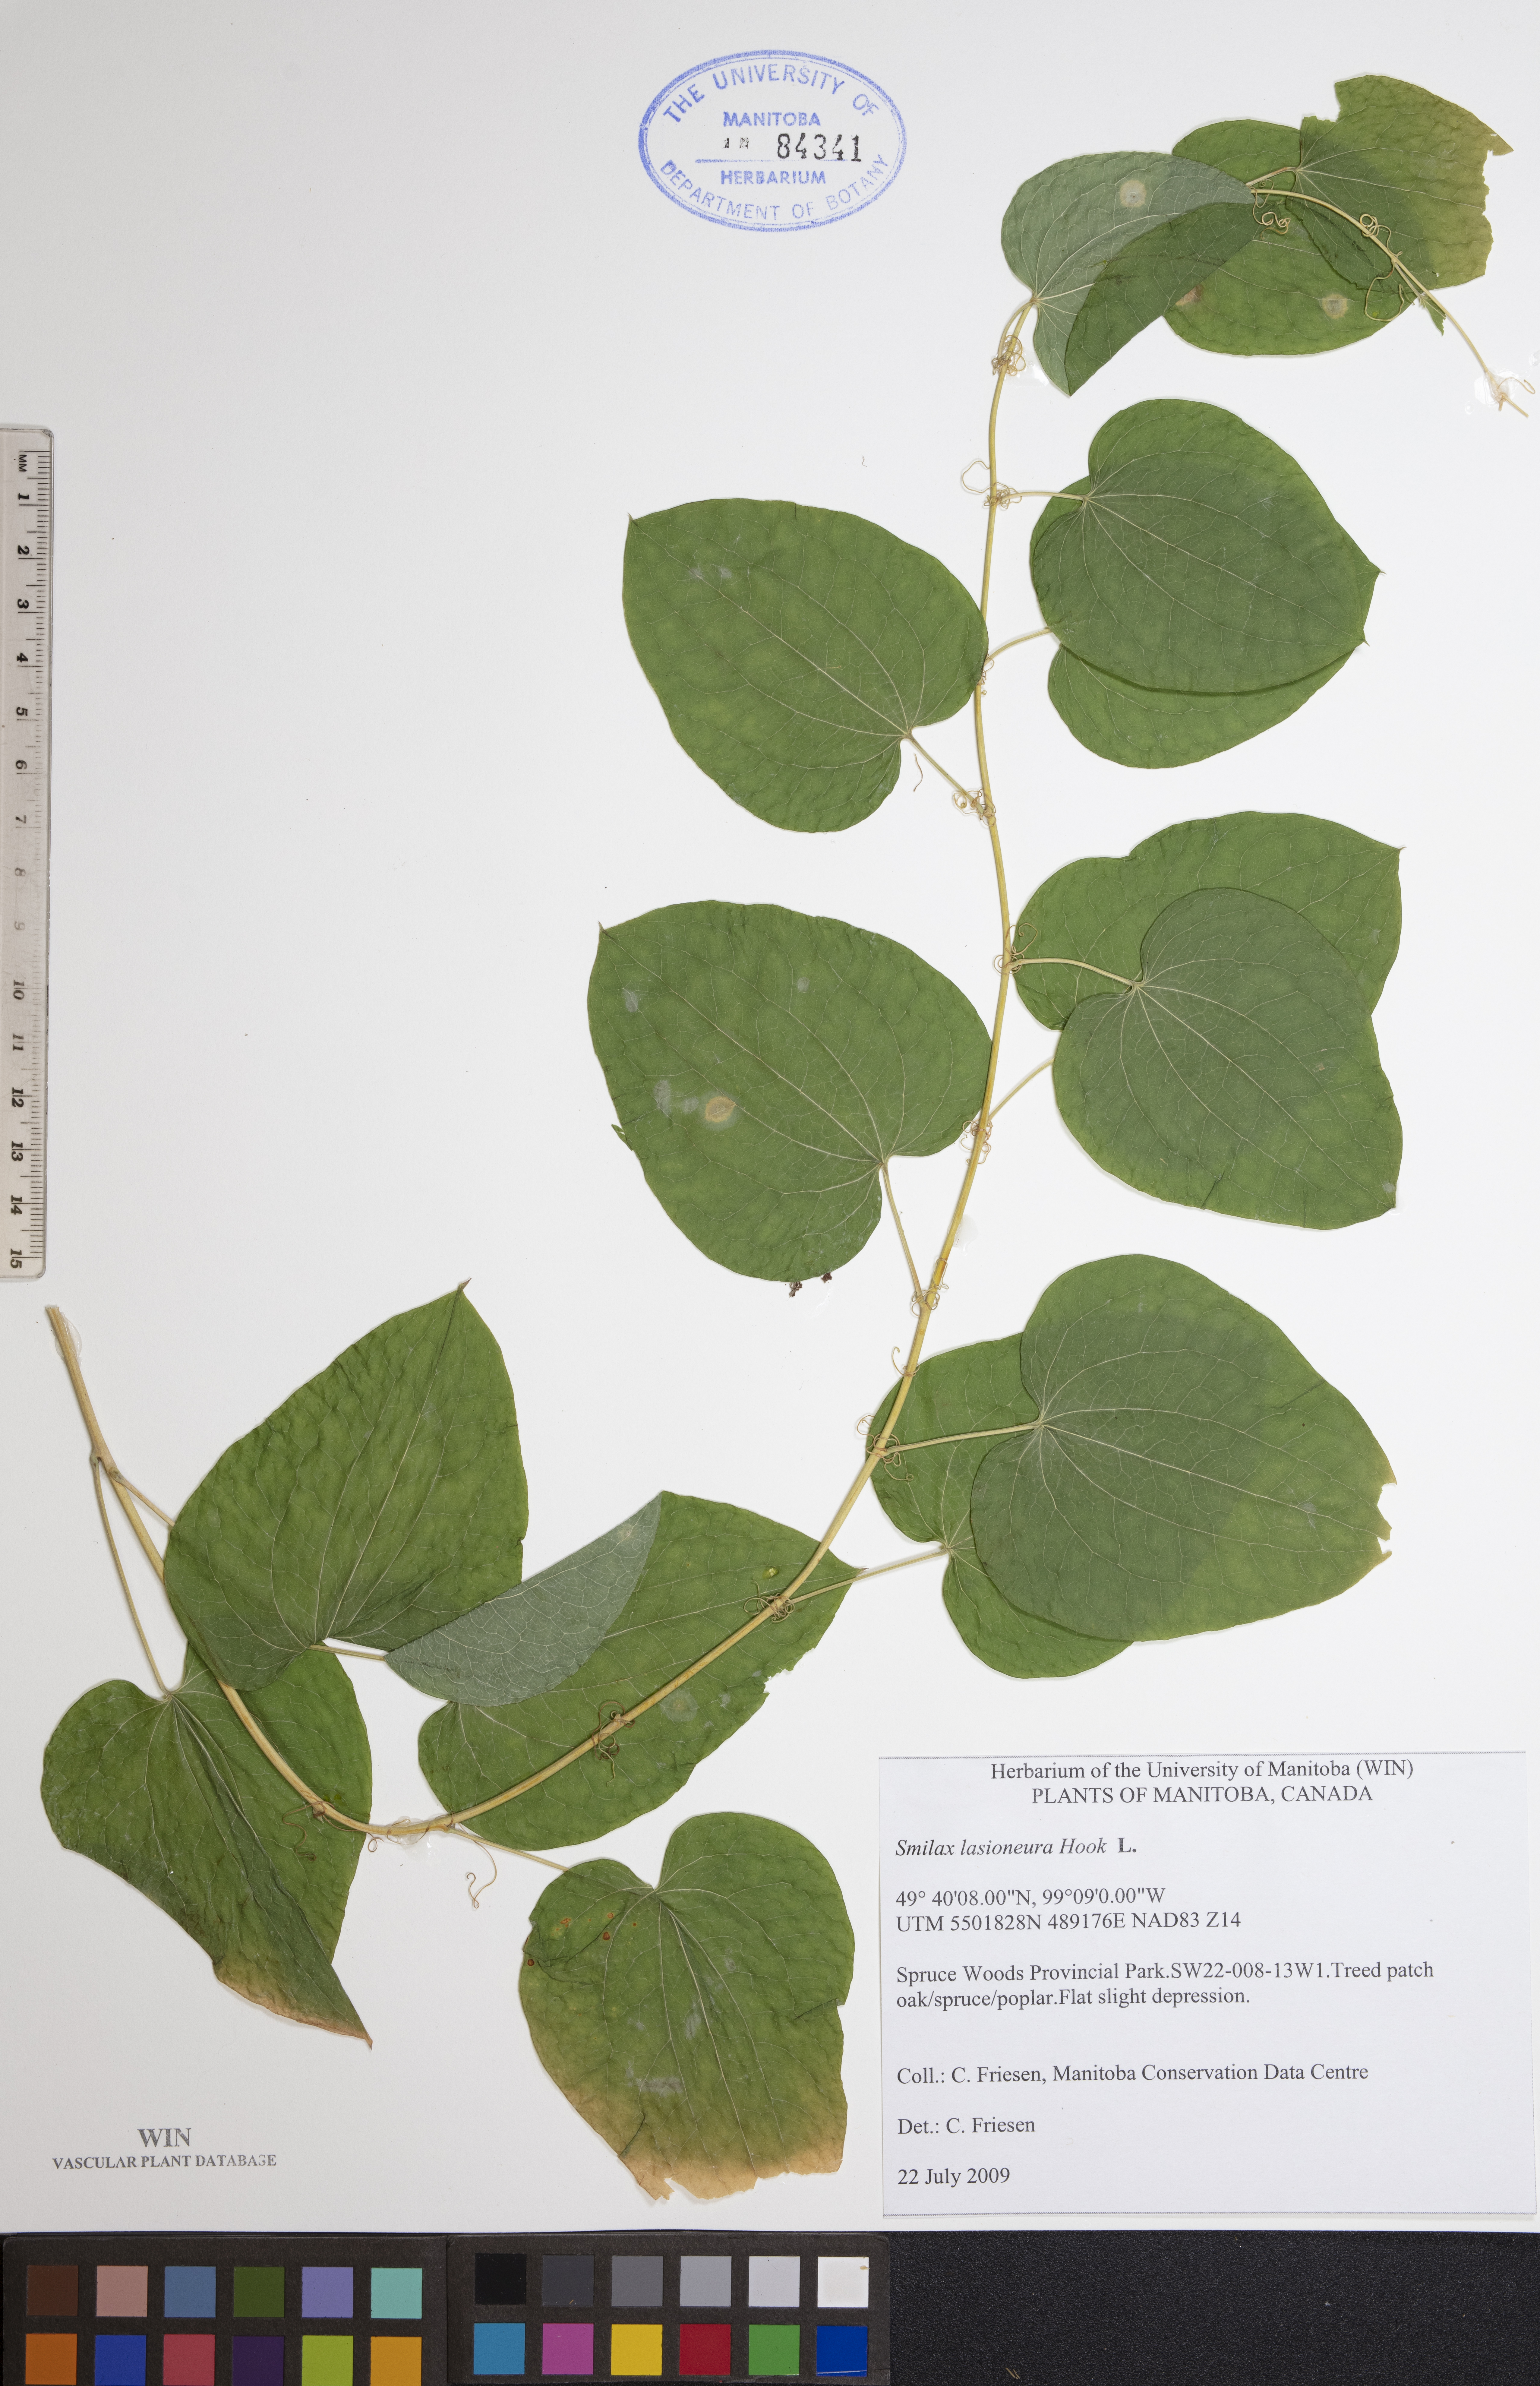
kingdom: Plantae
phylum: Tracheophyta
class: Liliopsida
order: Liliales
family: Smilacaceae
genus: Smilax
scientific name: Smilax lasioneura
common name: Blue ridge carrionflower
